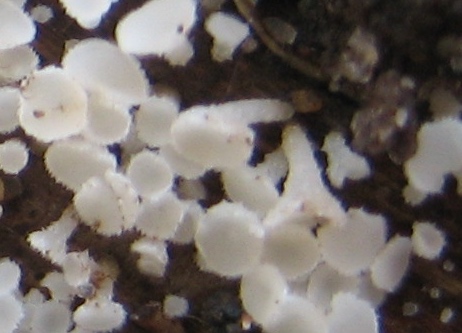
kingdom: Fungi
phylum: Ascomycota
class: Leotiomycetes
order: Helotiales
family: Lachnaceae
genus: Lachnum
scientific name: Lachnum
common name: frynseskive
